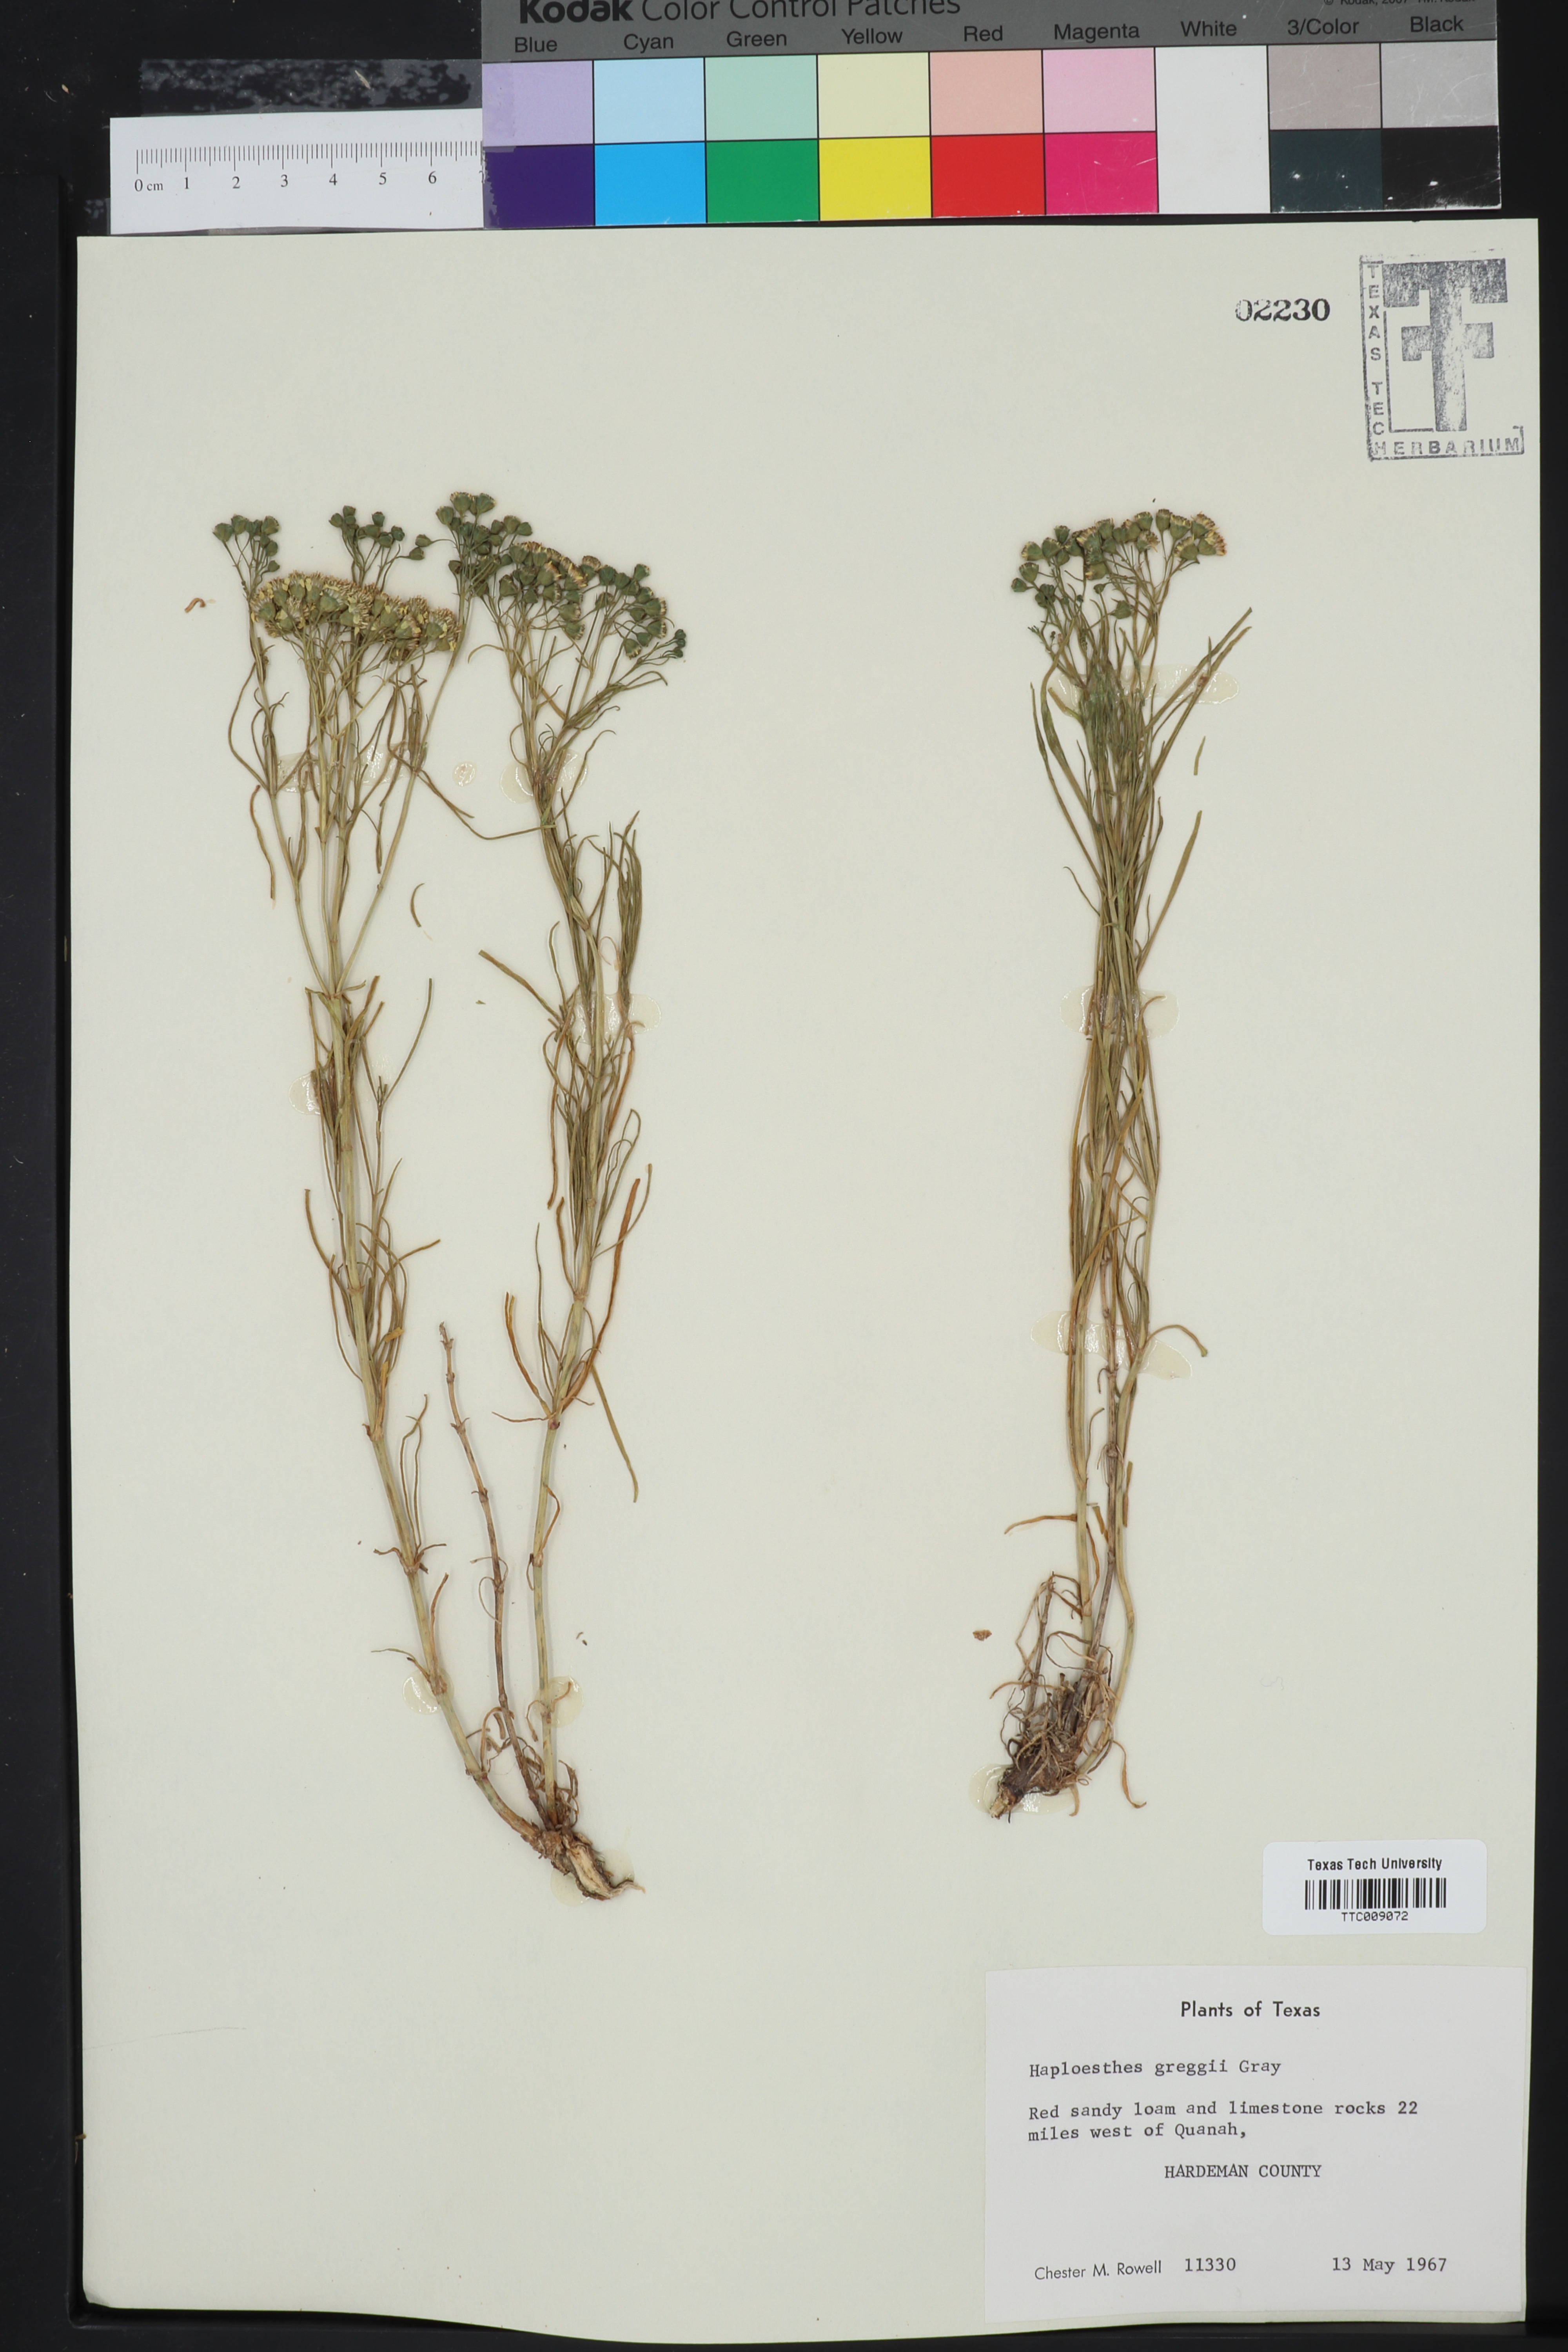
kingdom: Plantae
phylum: Tracheophyta
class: Magnoliopsida
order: Asterales
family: Asteraceae
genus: Haploesthes
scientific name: Haploesthes greggii
